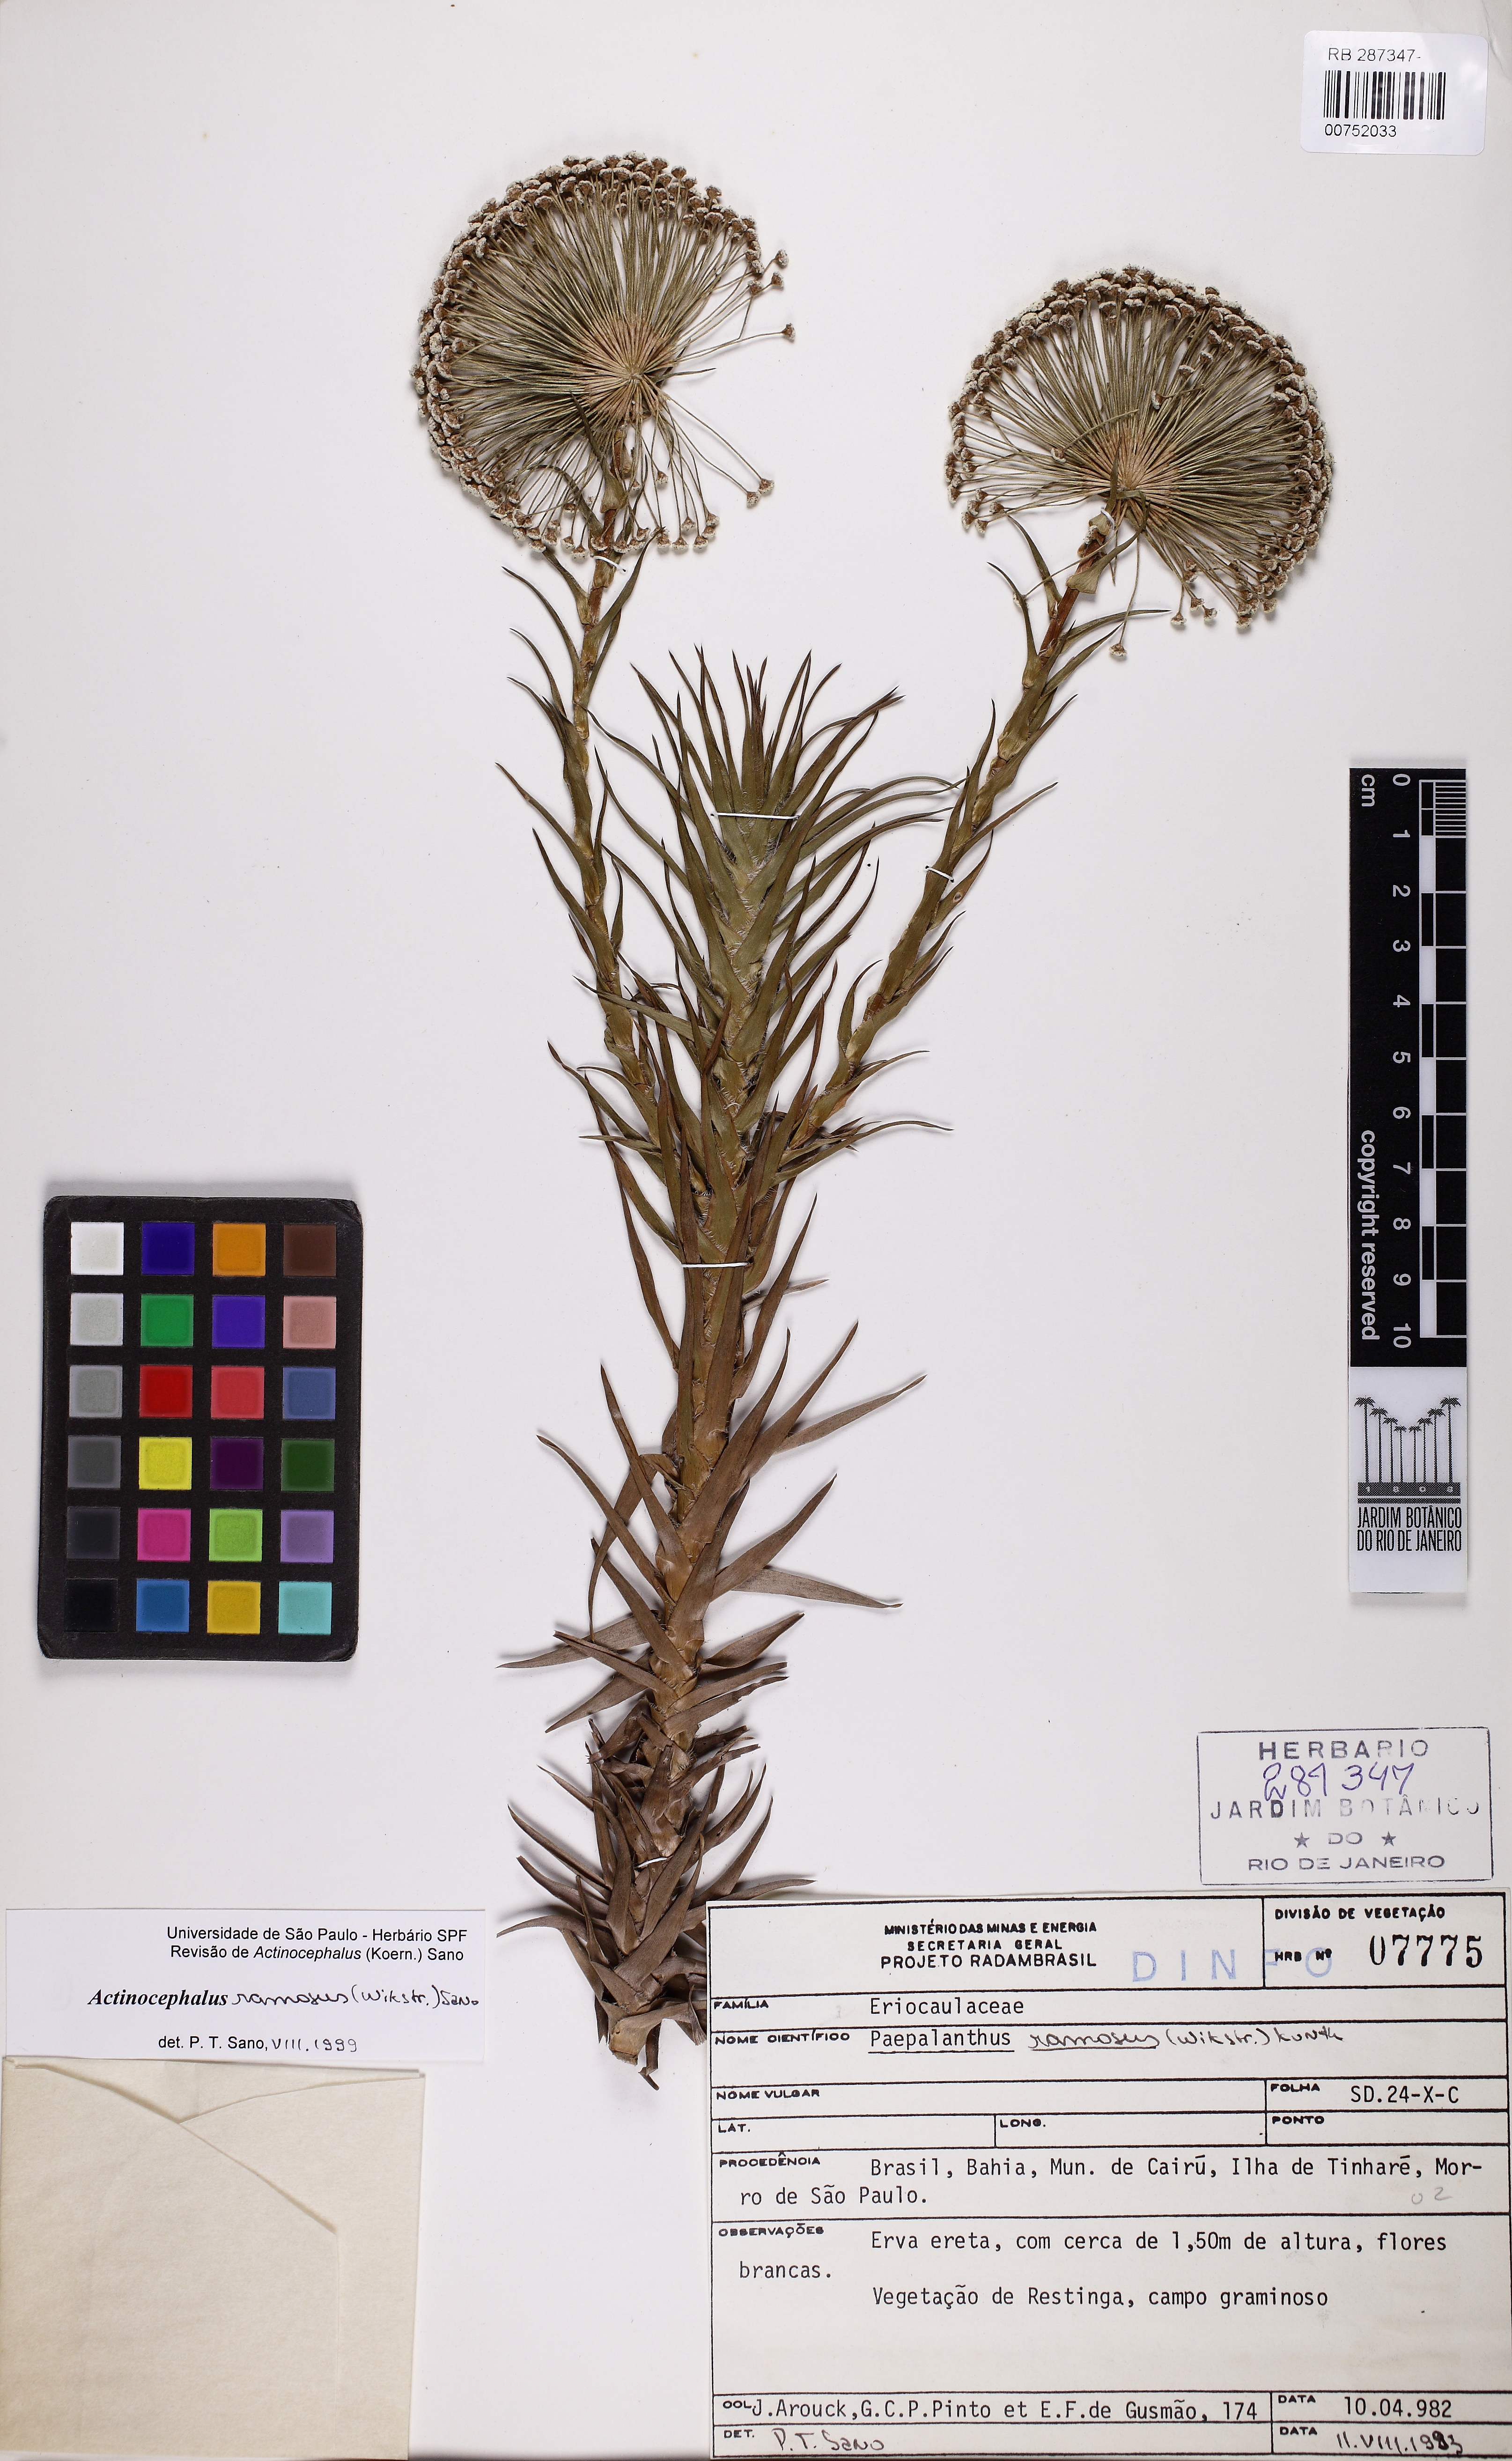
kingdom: Plantae
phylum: Tracheophyta
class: Liliopsida
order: Poales
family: Eriocaulaceae
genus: Paepalanthus
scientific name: Paepalanthus ramosus
